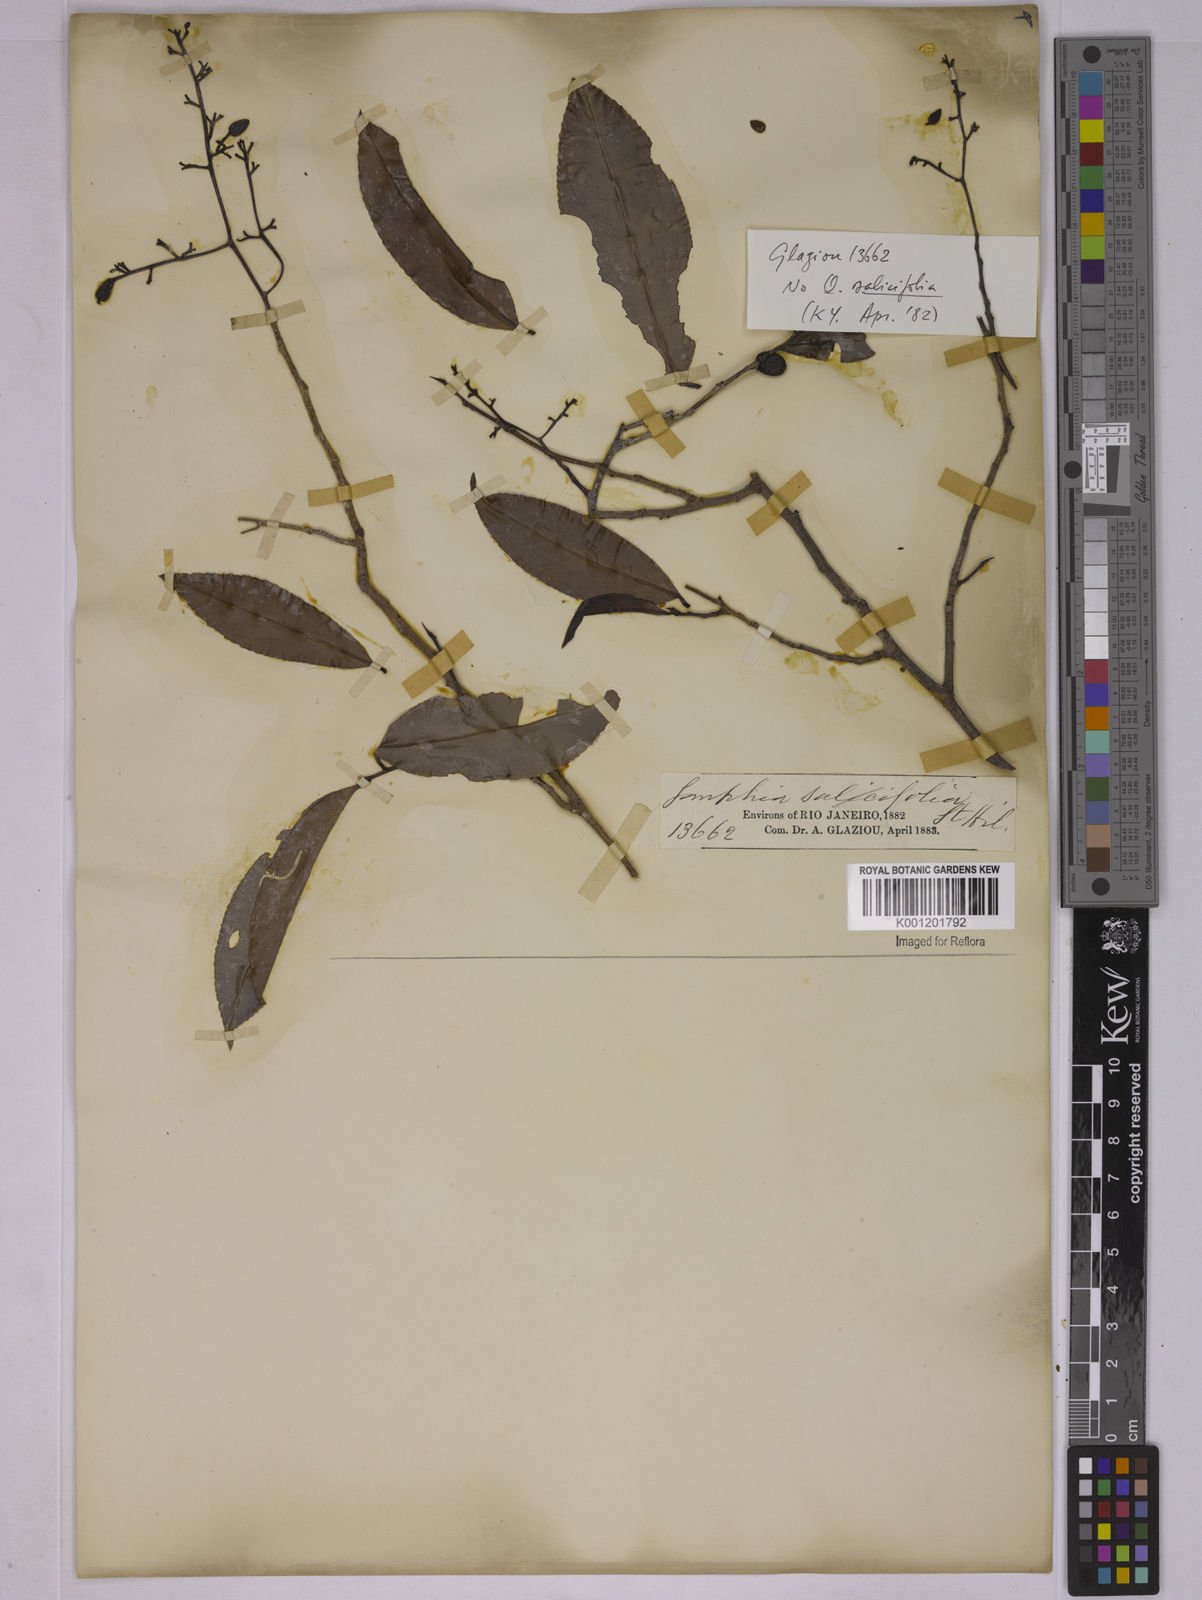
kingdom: Plantae
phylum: Tracheophyta
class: Magnoliopsida
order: Malpighiales
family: Ochnaceae
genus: Ouratea
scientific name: Ouratea salicifolia
